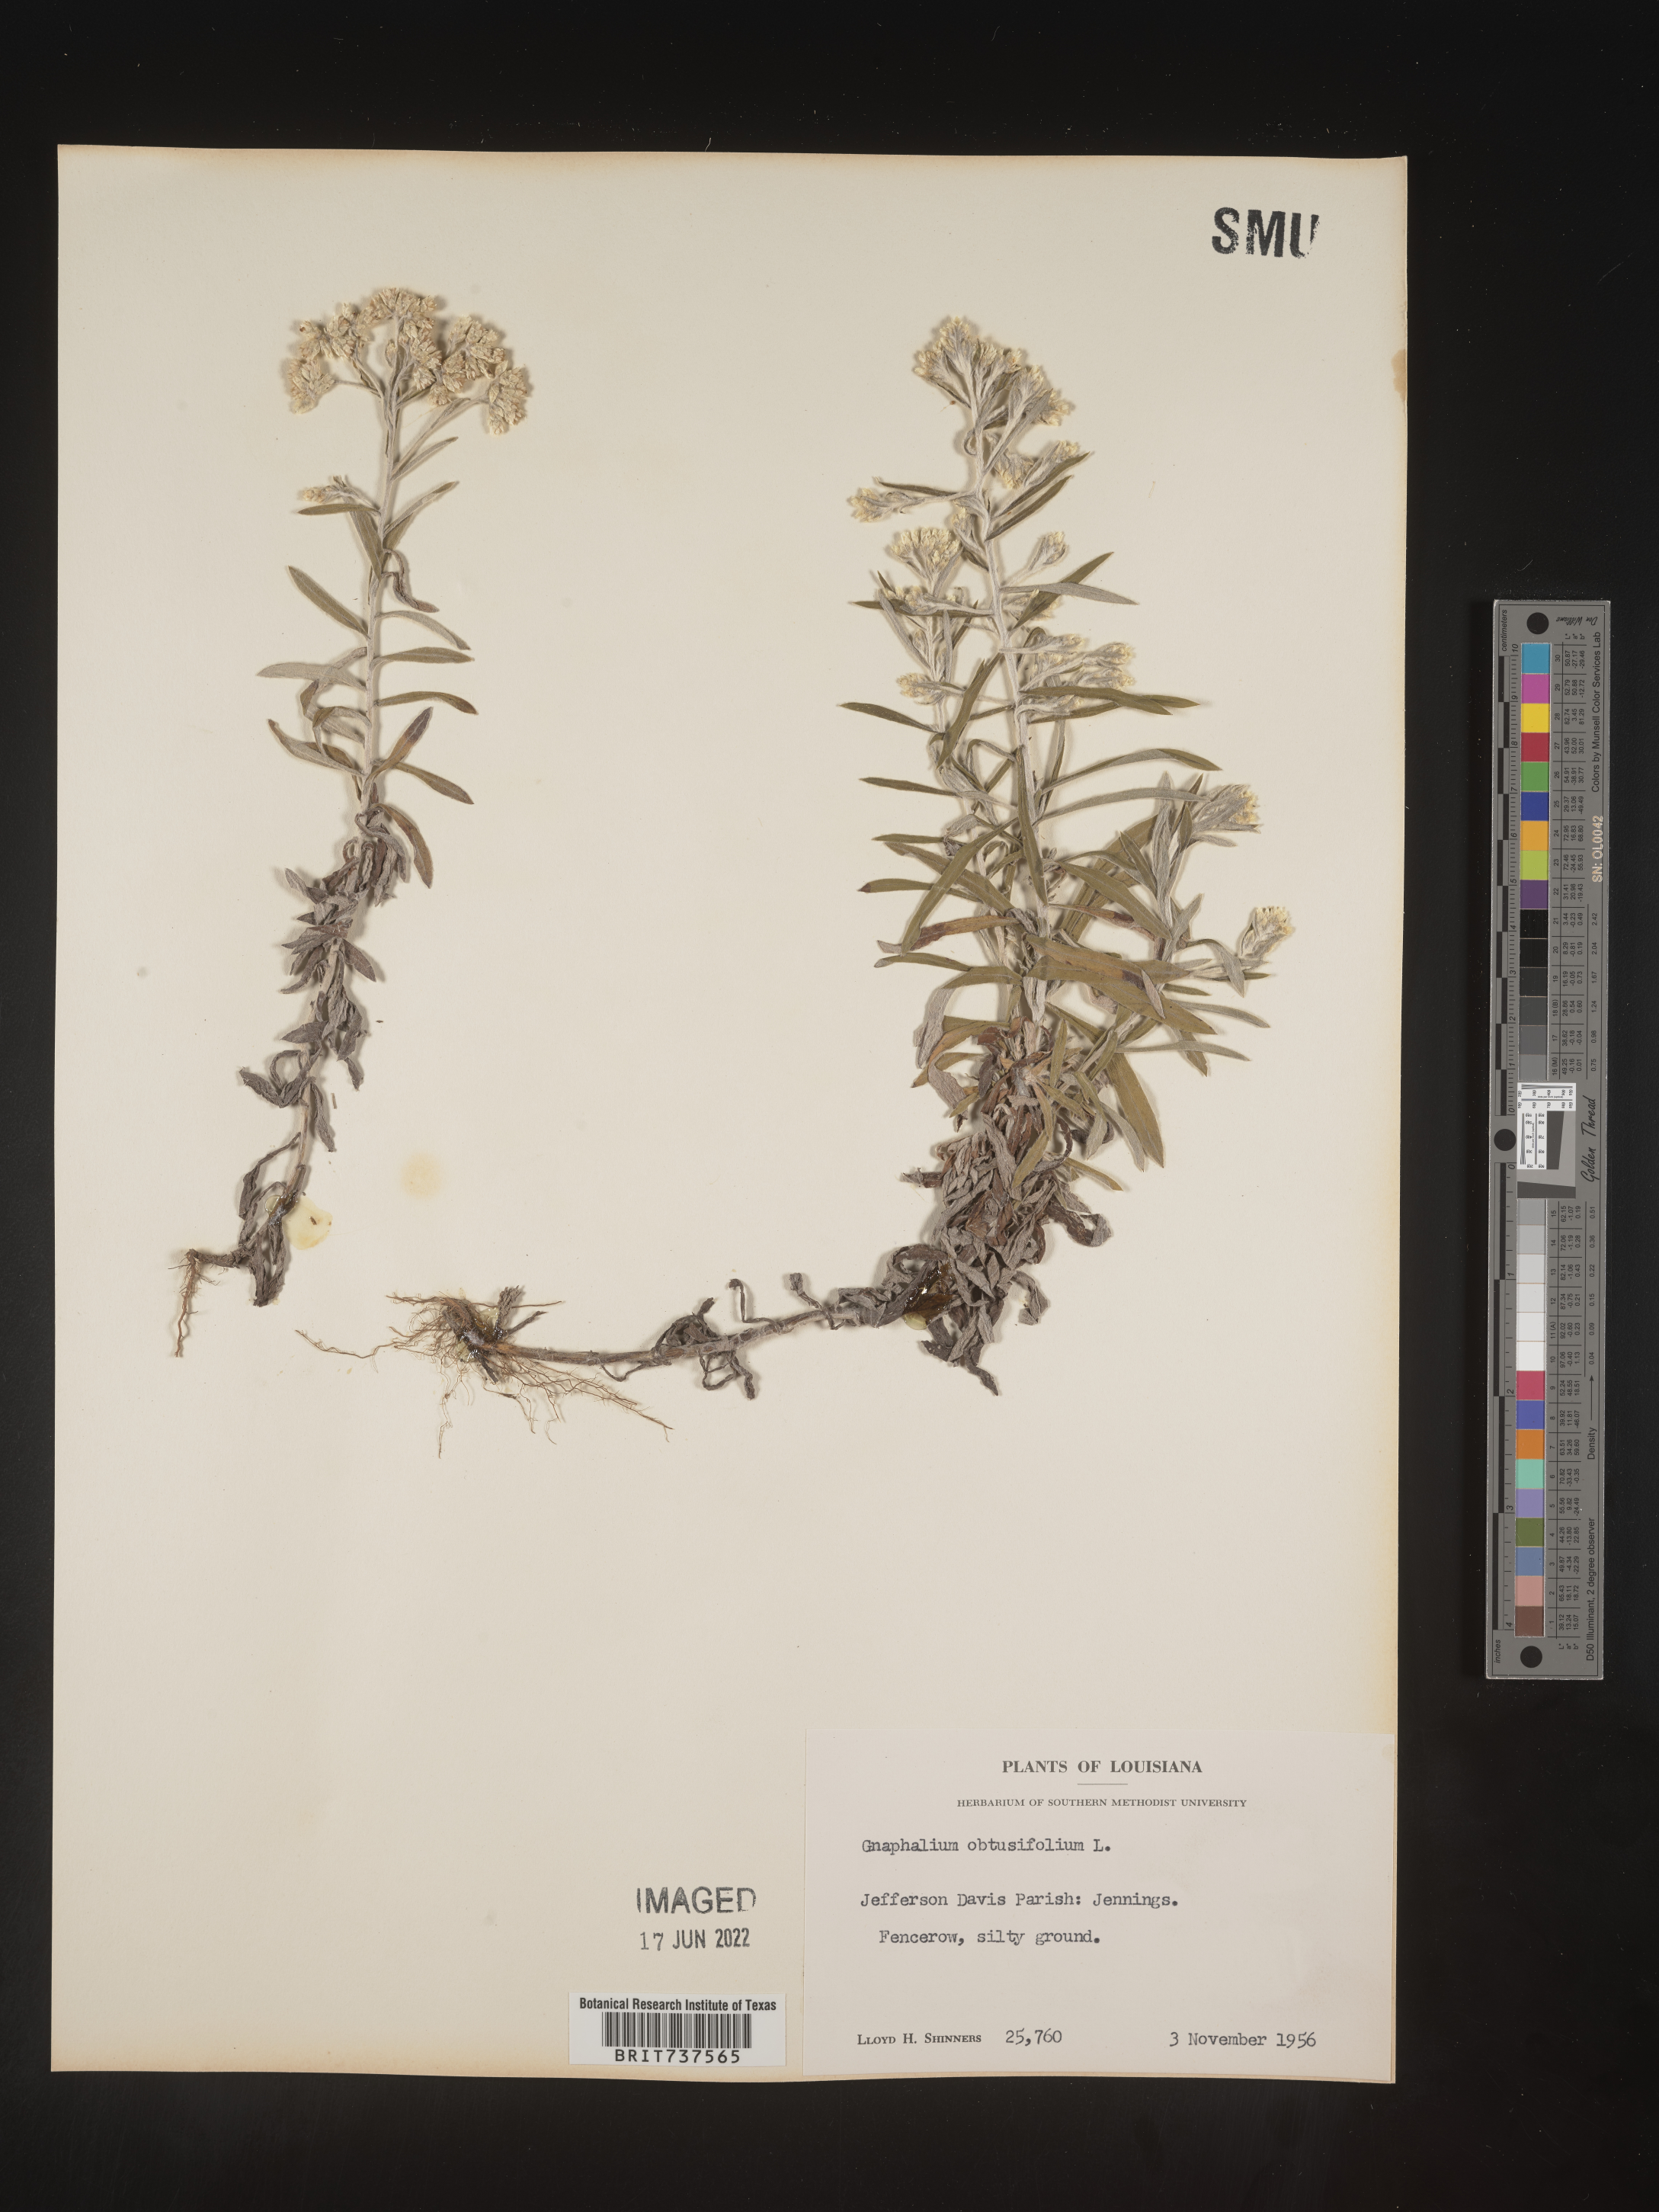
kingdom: Plantae
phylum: Tracheophyta
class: Magnoliopsida
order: Asterales
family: Asteraceae
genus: Pseudognaphalium
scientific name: Pseudognaphalium obtusifolium
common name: Eastern rabbit-tobacco
